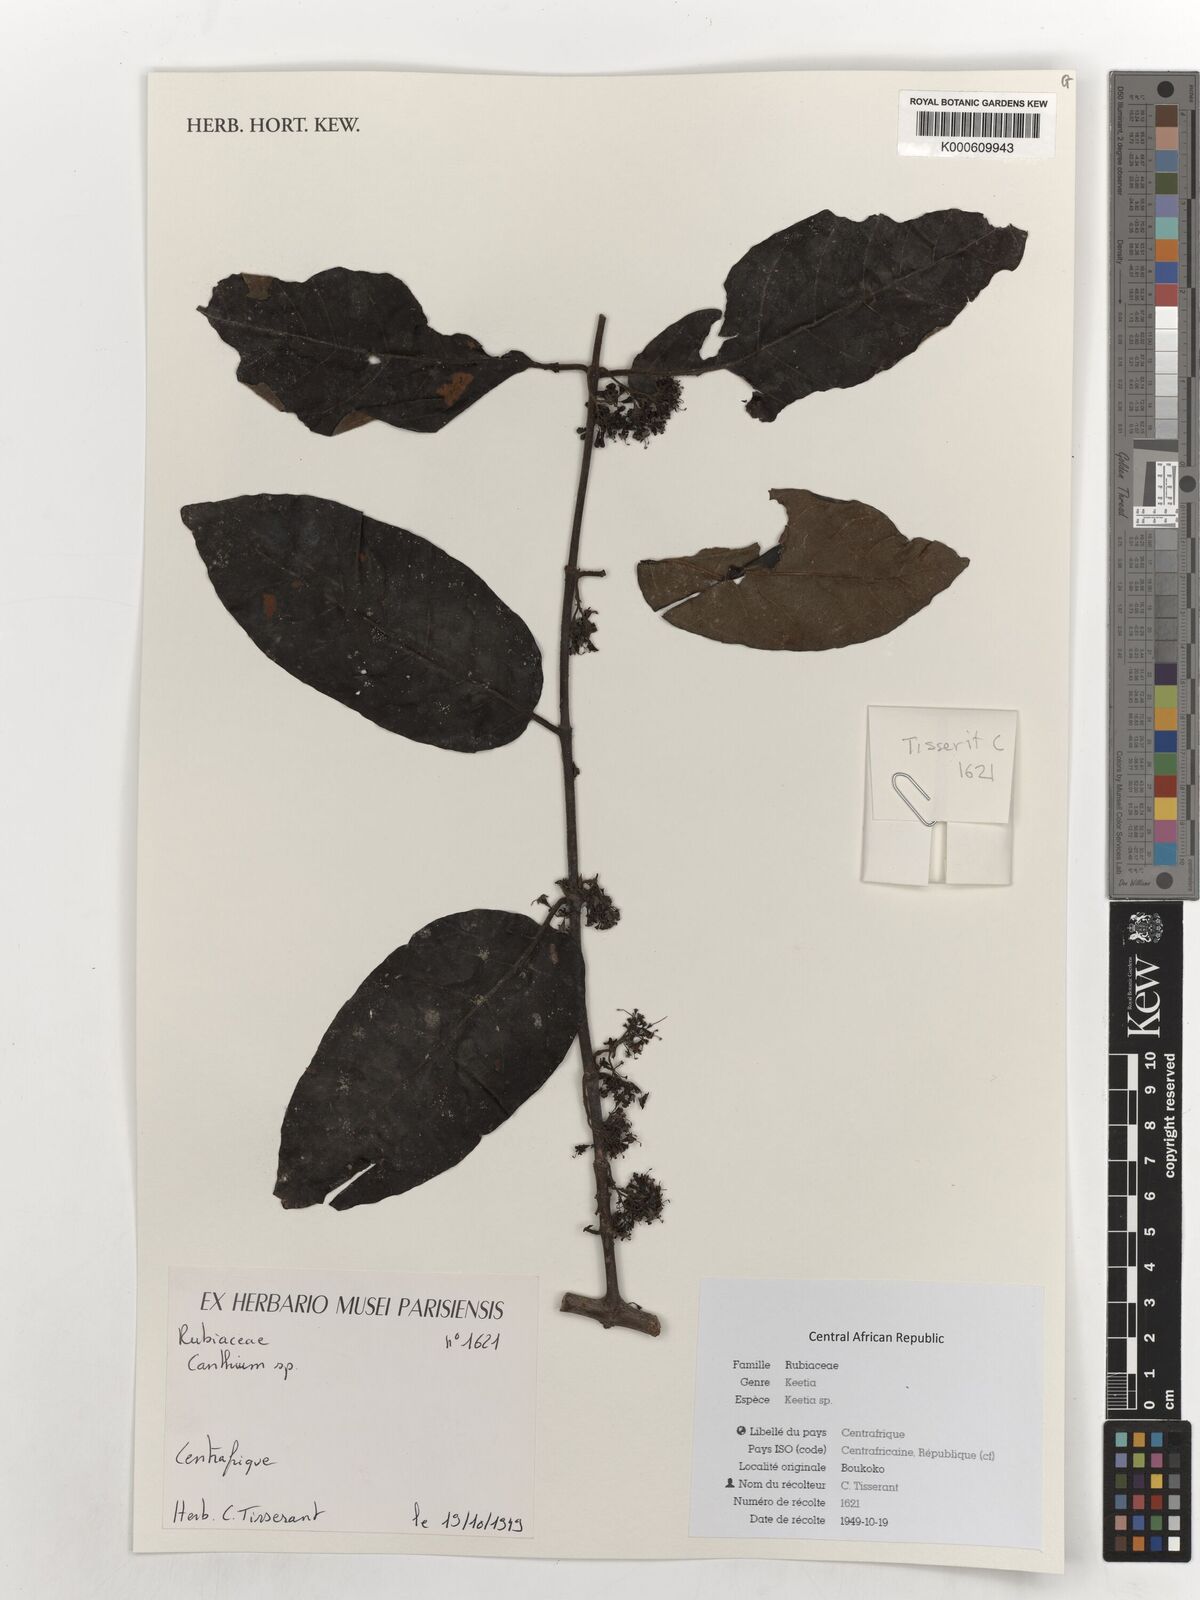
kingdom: Plantae
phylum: Tracheophyta
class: Magnoliopsida
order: Gentianales
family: Rubiaceae
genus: Keetia
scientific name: Keetia
